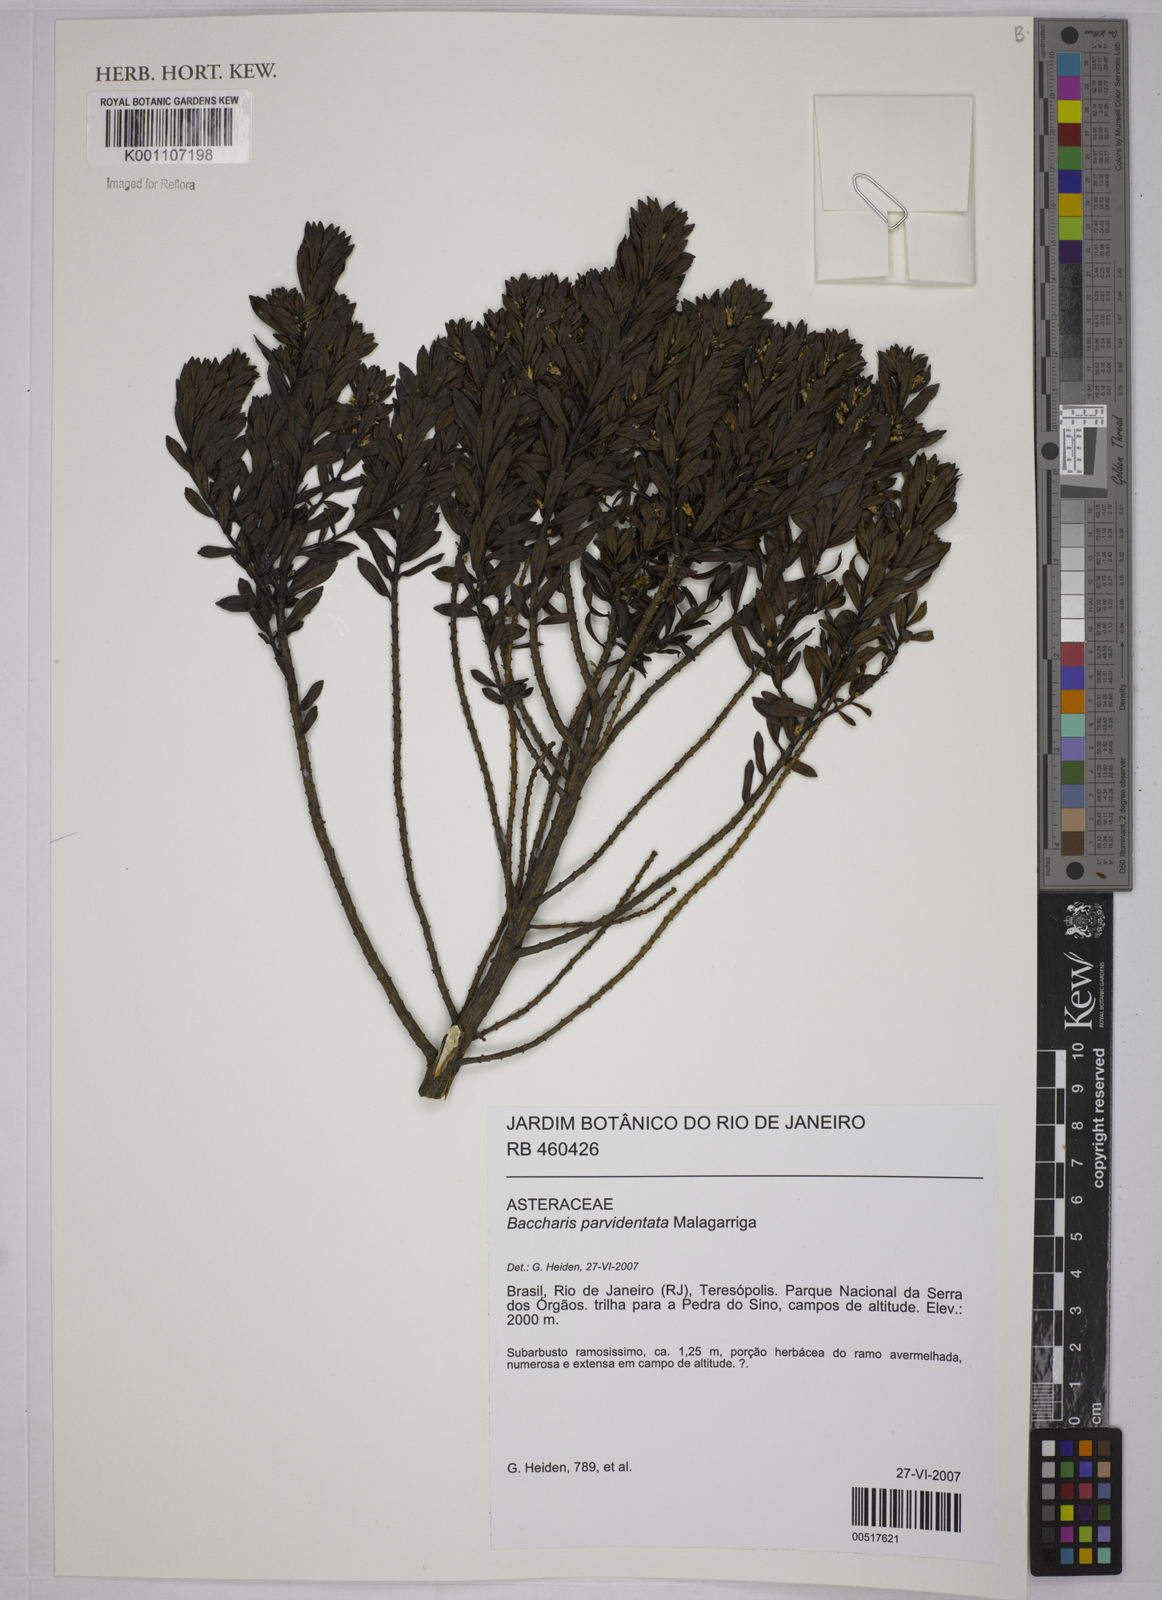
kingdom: Plantae
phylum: Tracheophyta
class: Magnoliopsida
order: Asterales
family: Asteraceae
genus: Baccharis
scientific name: Baccharis parvidentata
